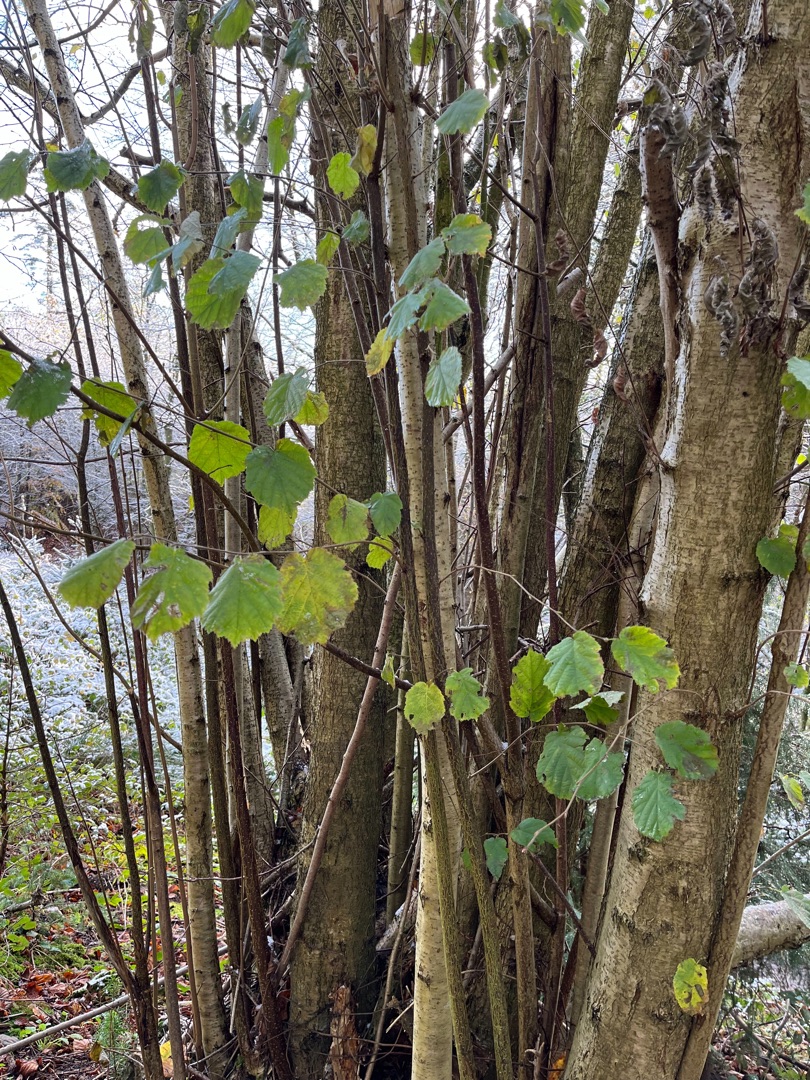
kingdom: Plantae
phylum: Tracheophyta
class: Magnoliopsida
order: Fagales
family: Betulaceae
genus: Corylus
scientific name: Corylus avellana
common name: Hassel
